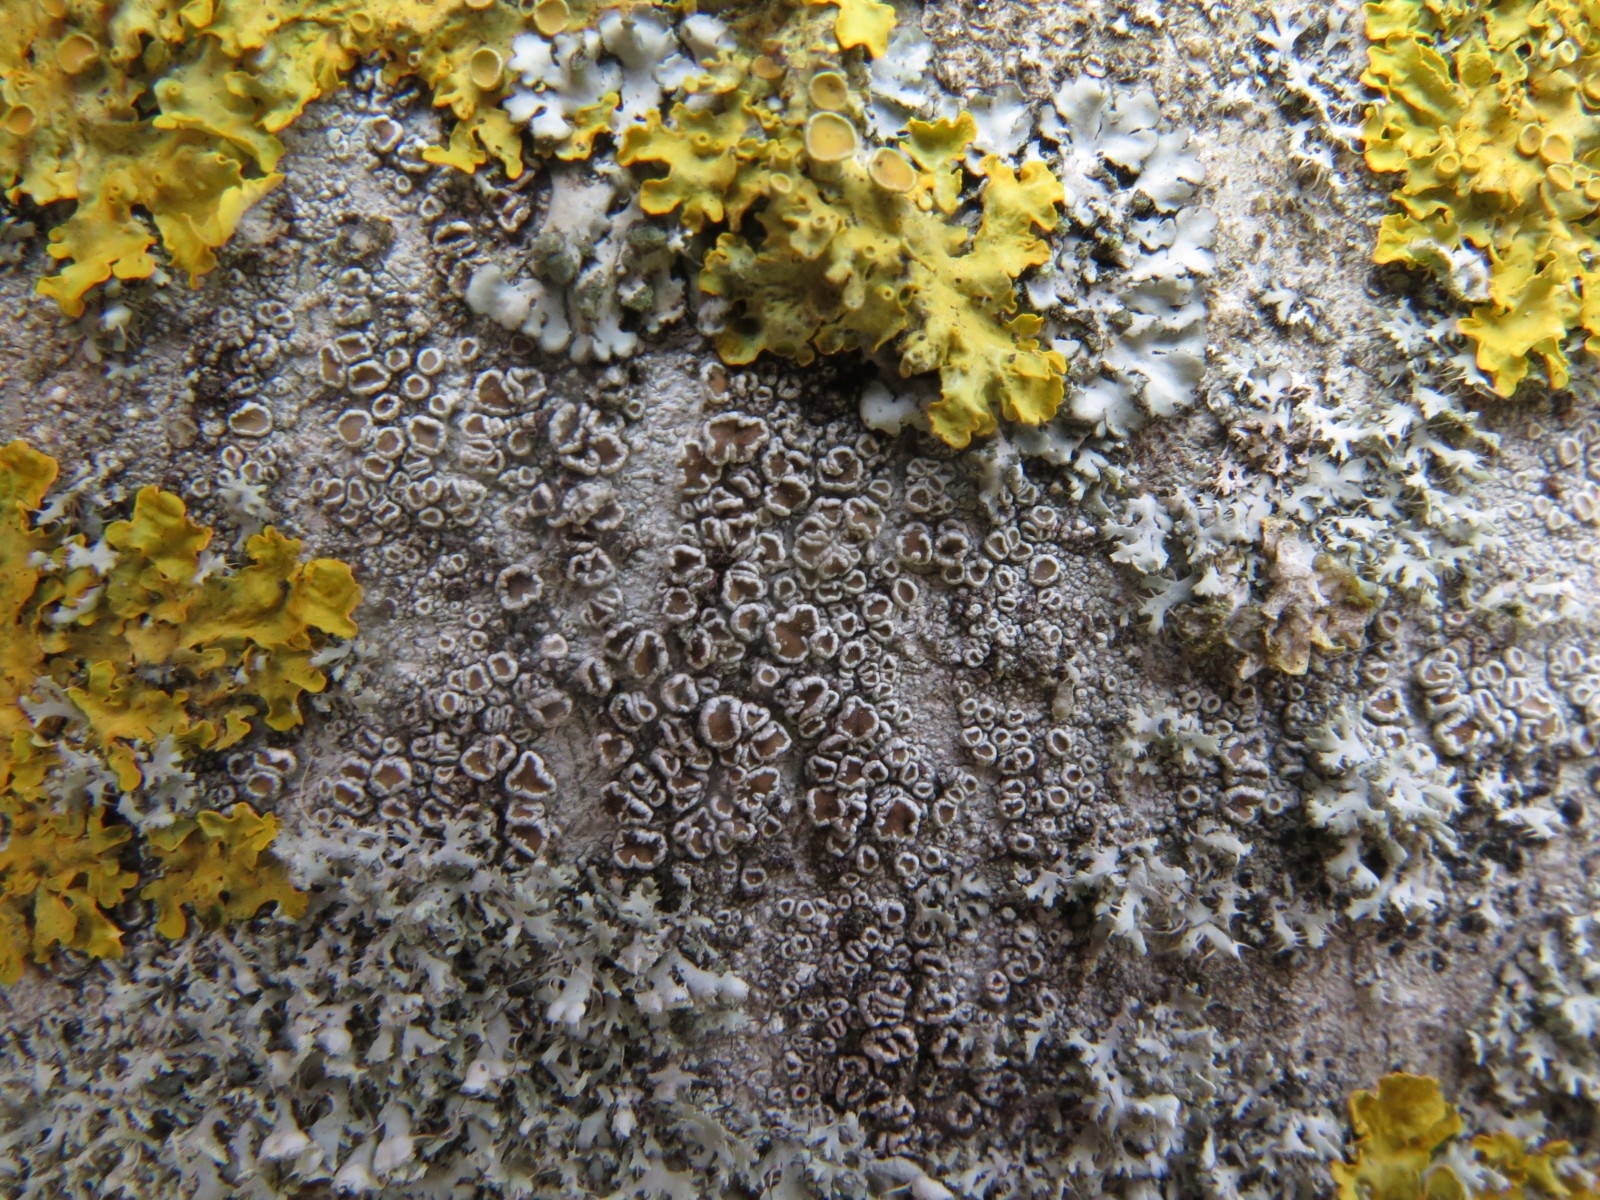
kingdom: Fungi
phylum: Ascomycota
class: Lecanoromycetes
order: Lecanorales
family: Lecanoraceae
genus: Lecanora
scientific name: Lecanora chlarotera
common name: brun kantskivelav
